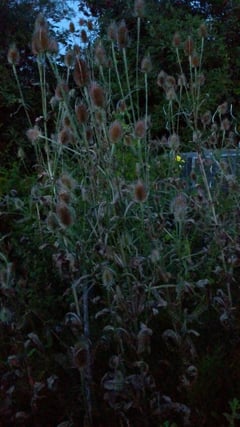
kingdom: Animalia
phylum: Arthropoda
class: Insecta
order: Orthoptera
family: Gryllidae
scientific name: Gryllidae
